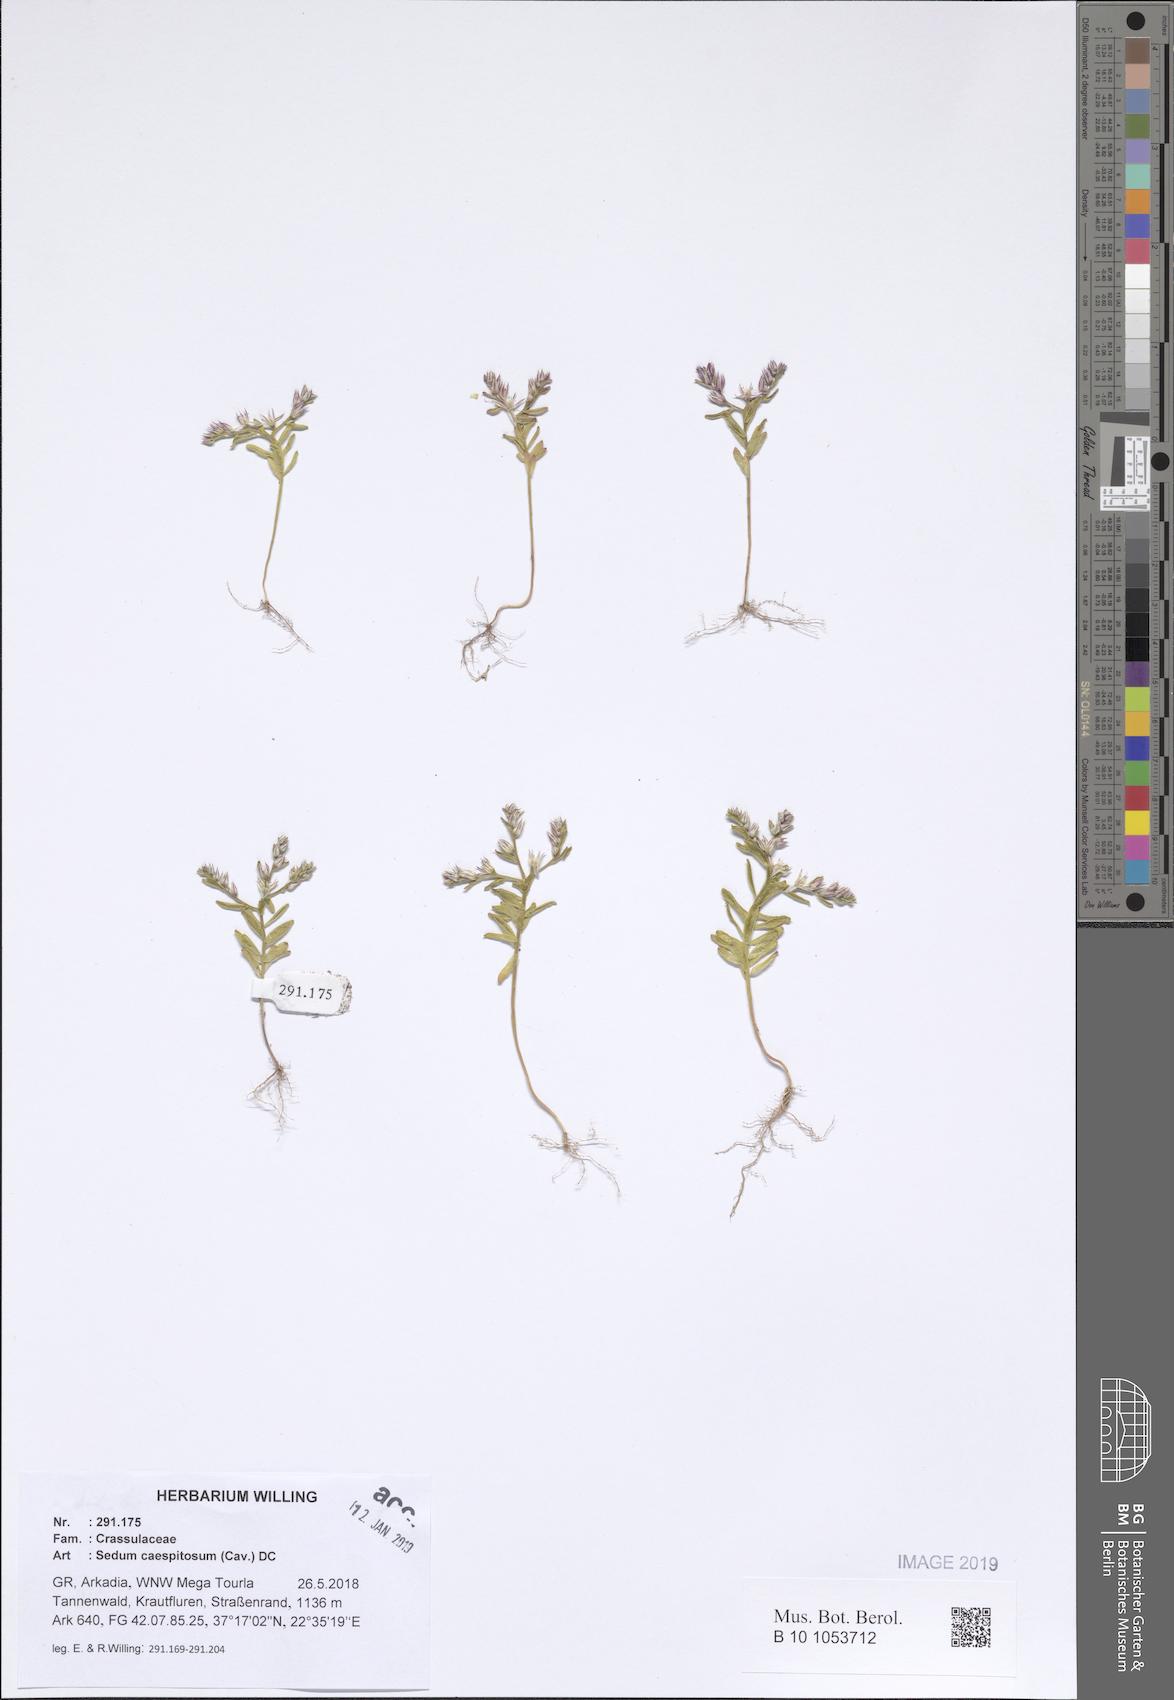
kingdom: Plantae
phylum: Tracheophyta
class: Magnoliopsida
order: Saxifragales
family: Crassulaceae
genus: Sedum
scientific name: Sedum cespitosum
